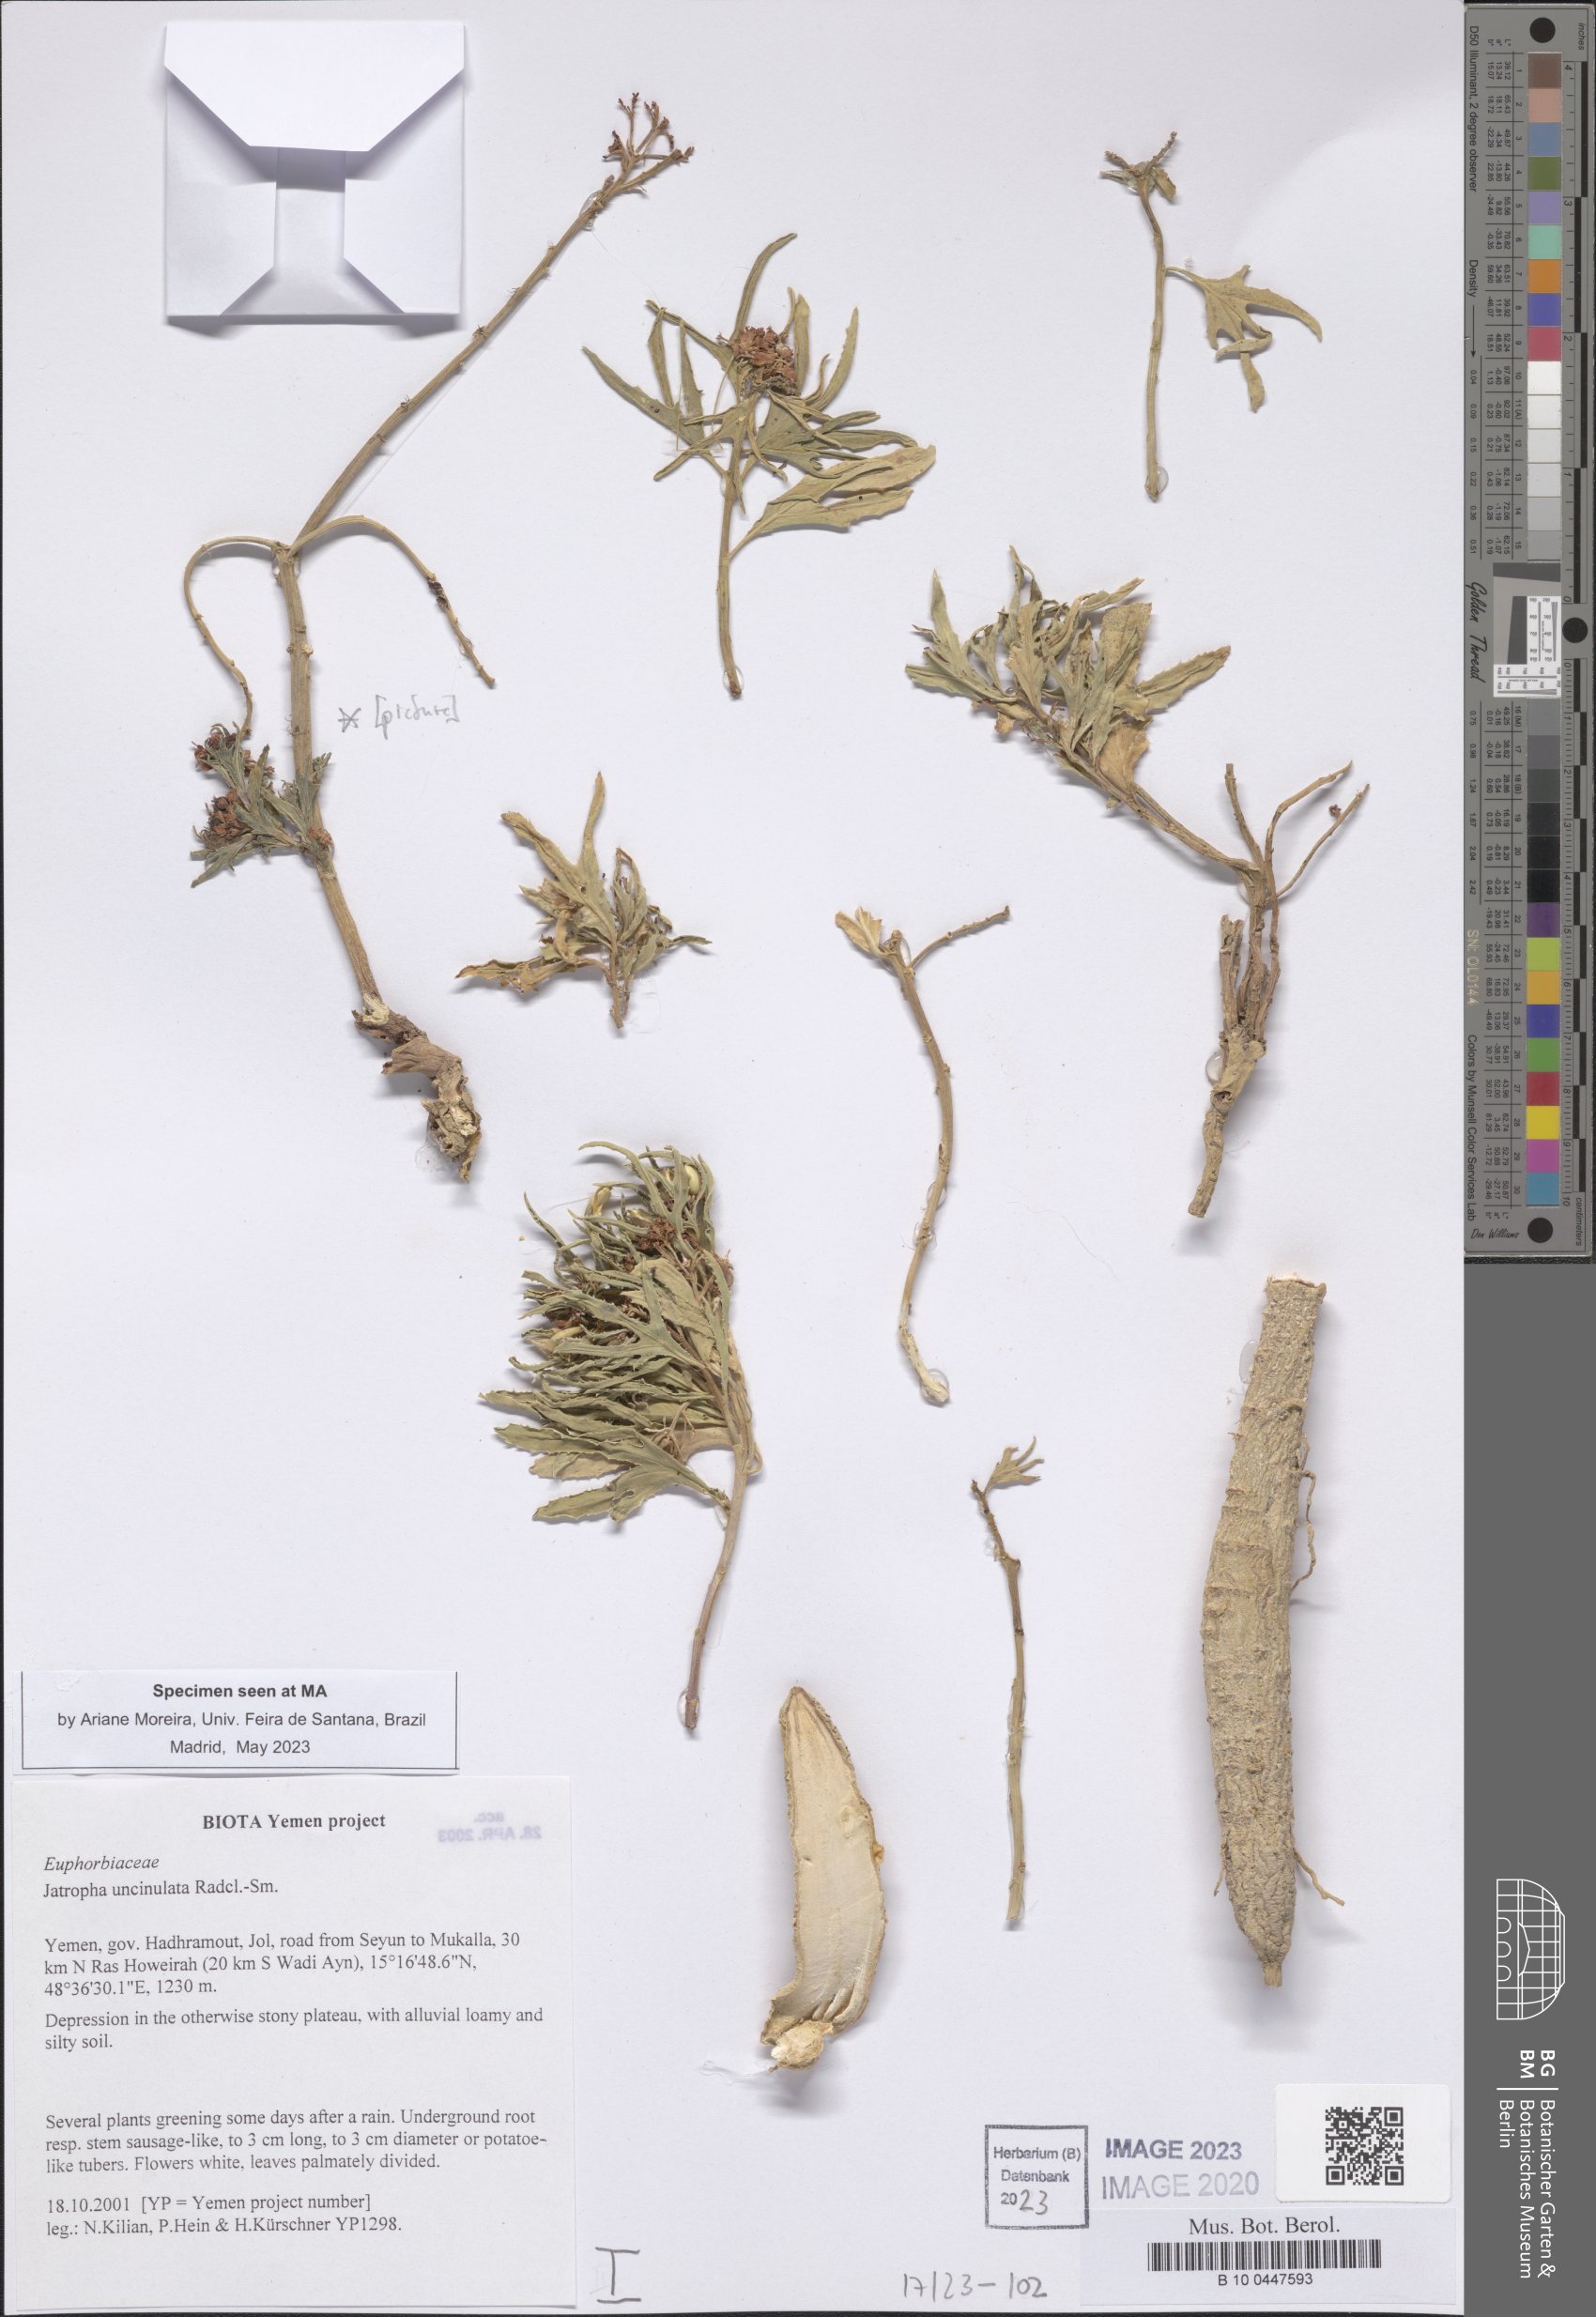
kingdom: Plantae
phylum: Tracheophyta
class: Magnoliopsida
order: Malpighiales
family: Euphorbiaceae
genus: Jatropha
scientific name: Jatropha uncinulata
